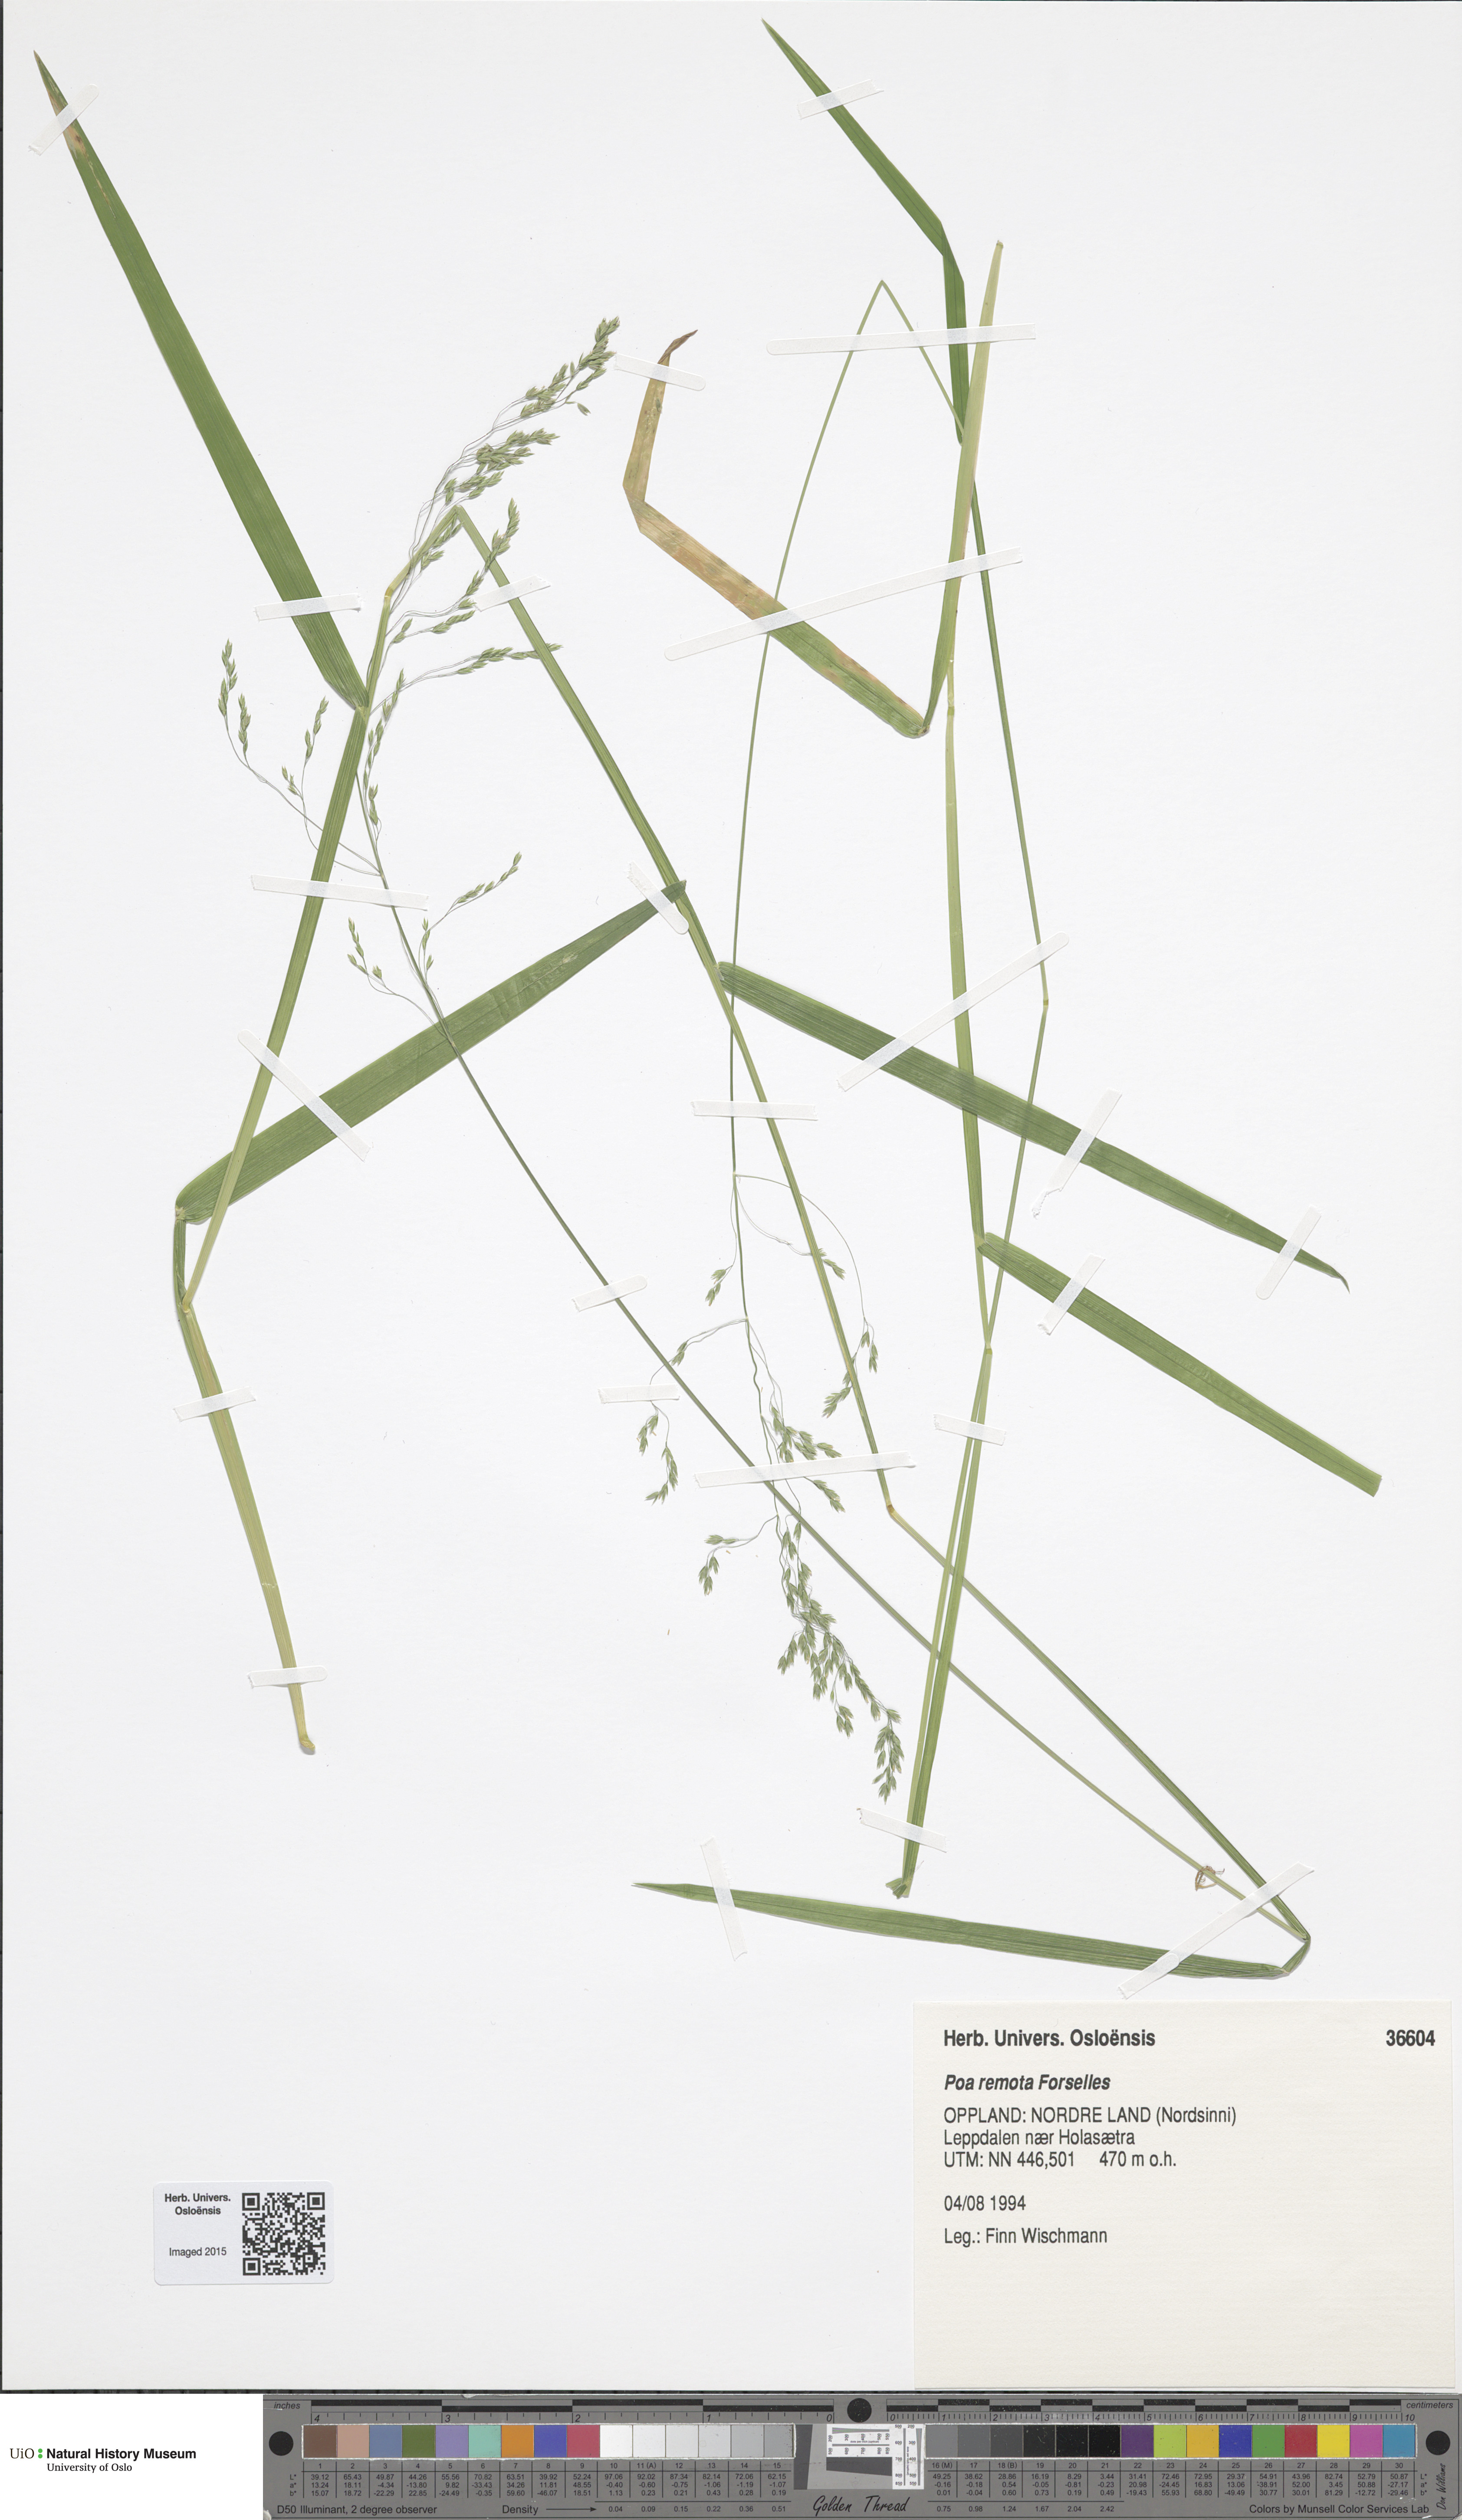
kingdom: Plantae
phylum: Tracheophyta
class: Liliopsida
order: Poales
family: Poaceae
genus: Poa
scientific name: Poa remota
